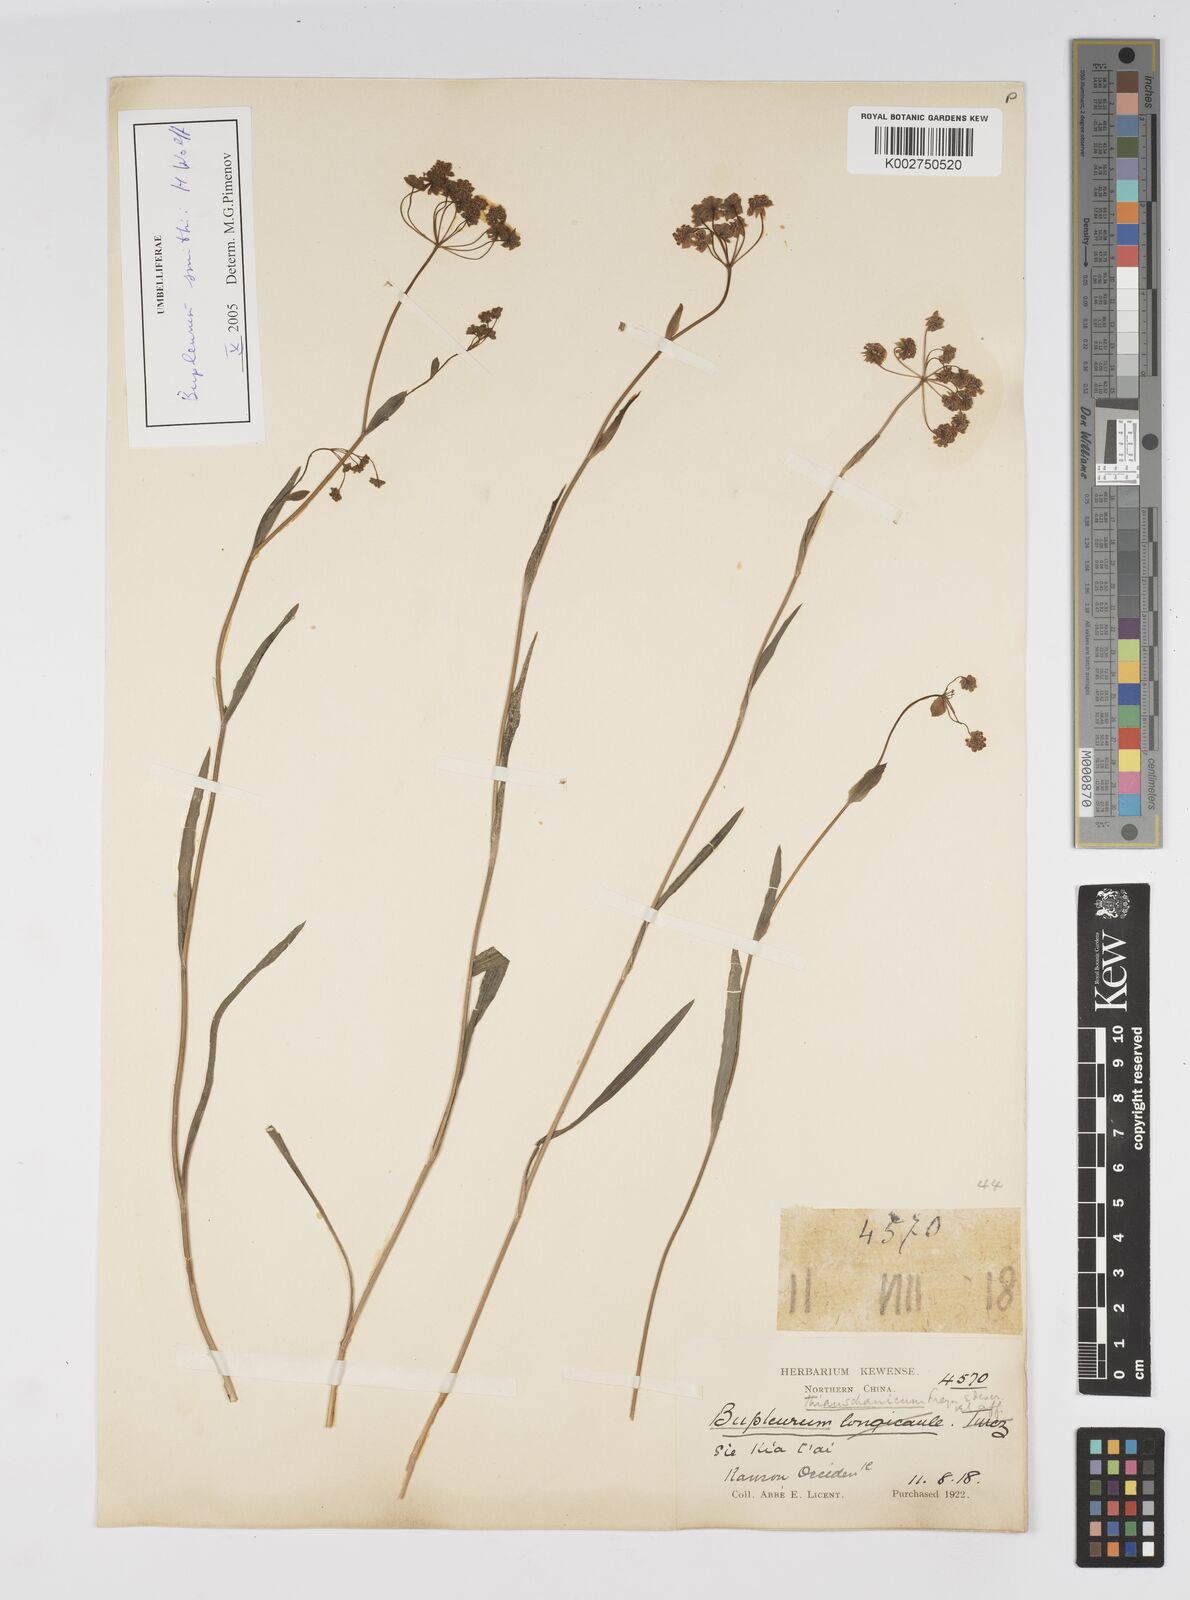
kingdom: Plantae
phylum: Tracheophyta
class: Magnoliopsida
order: Apiales
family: Apiaceae
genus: Bupleurum
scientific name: Bupleurum thianschanicum
